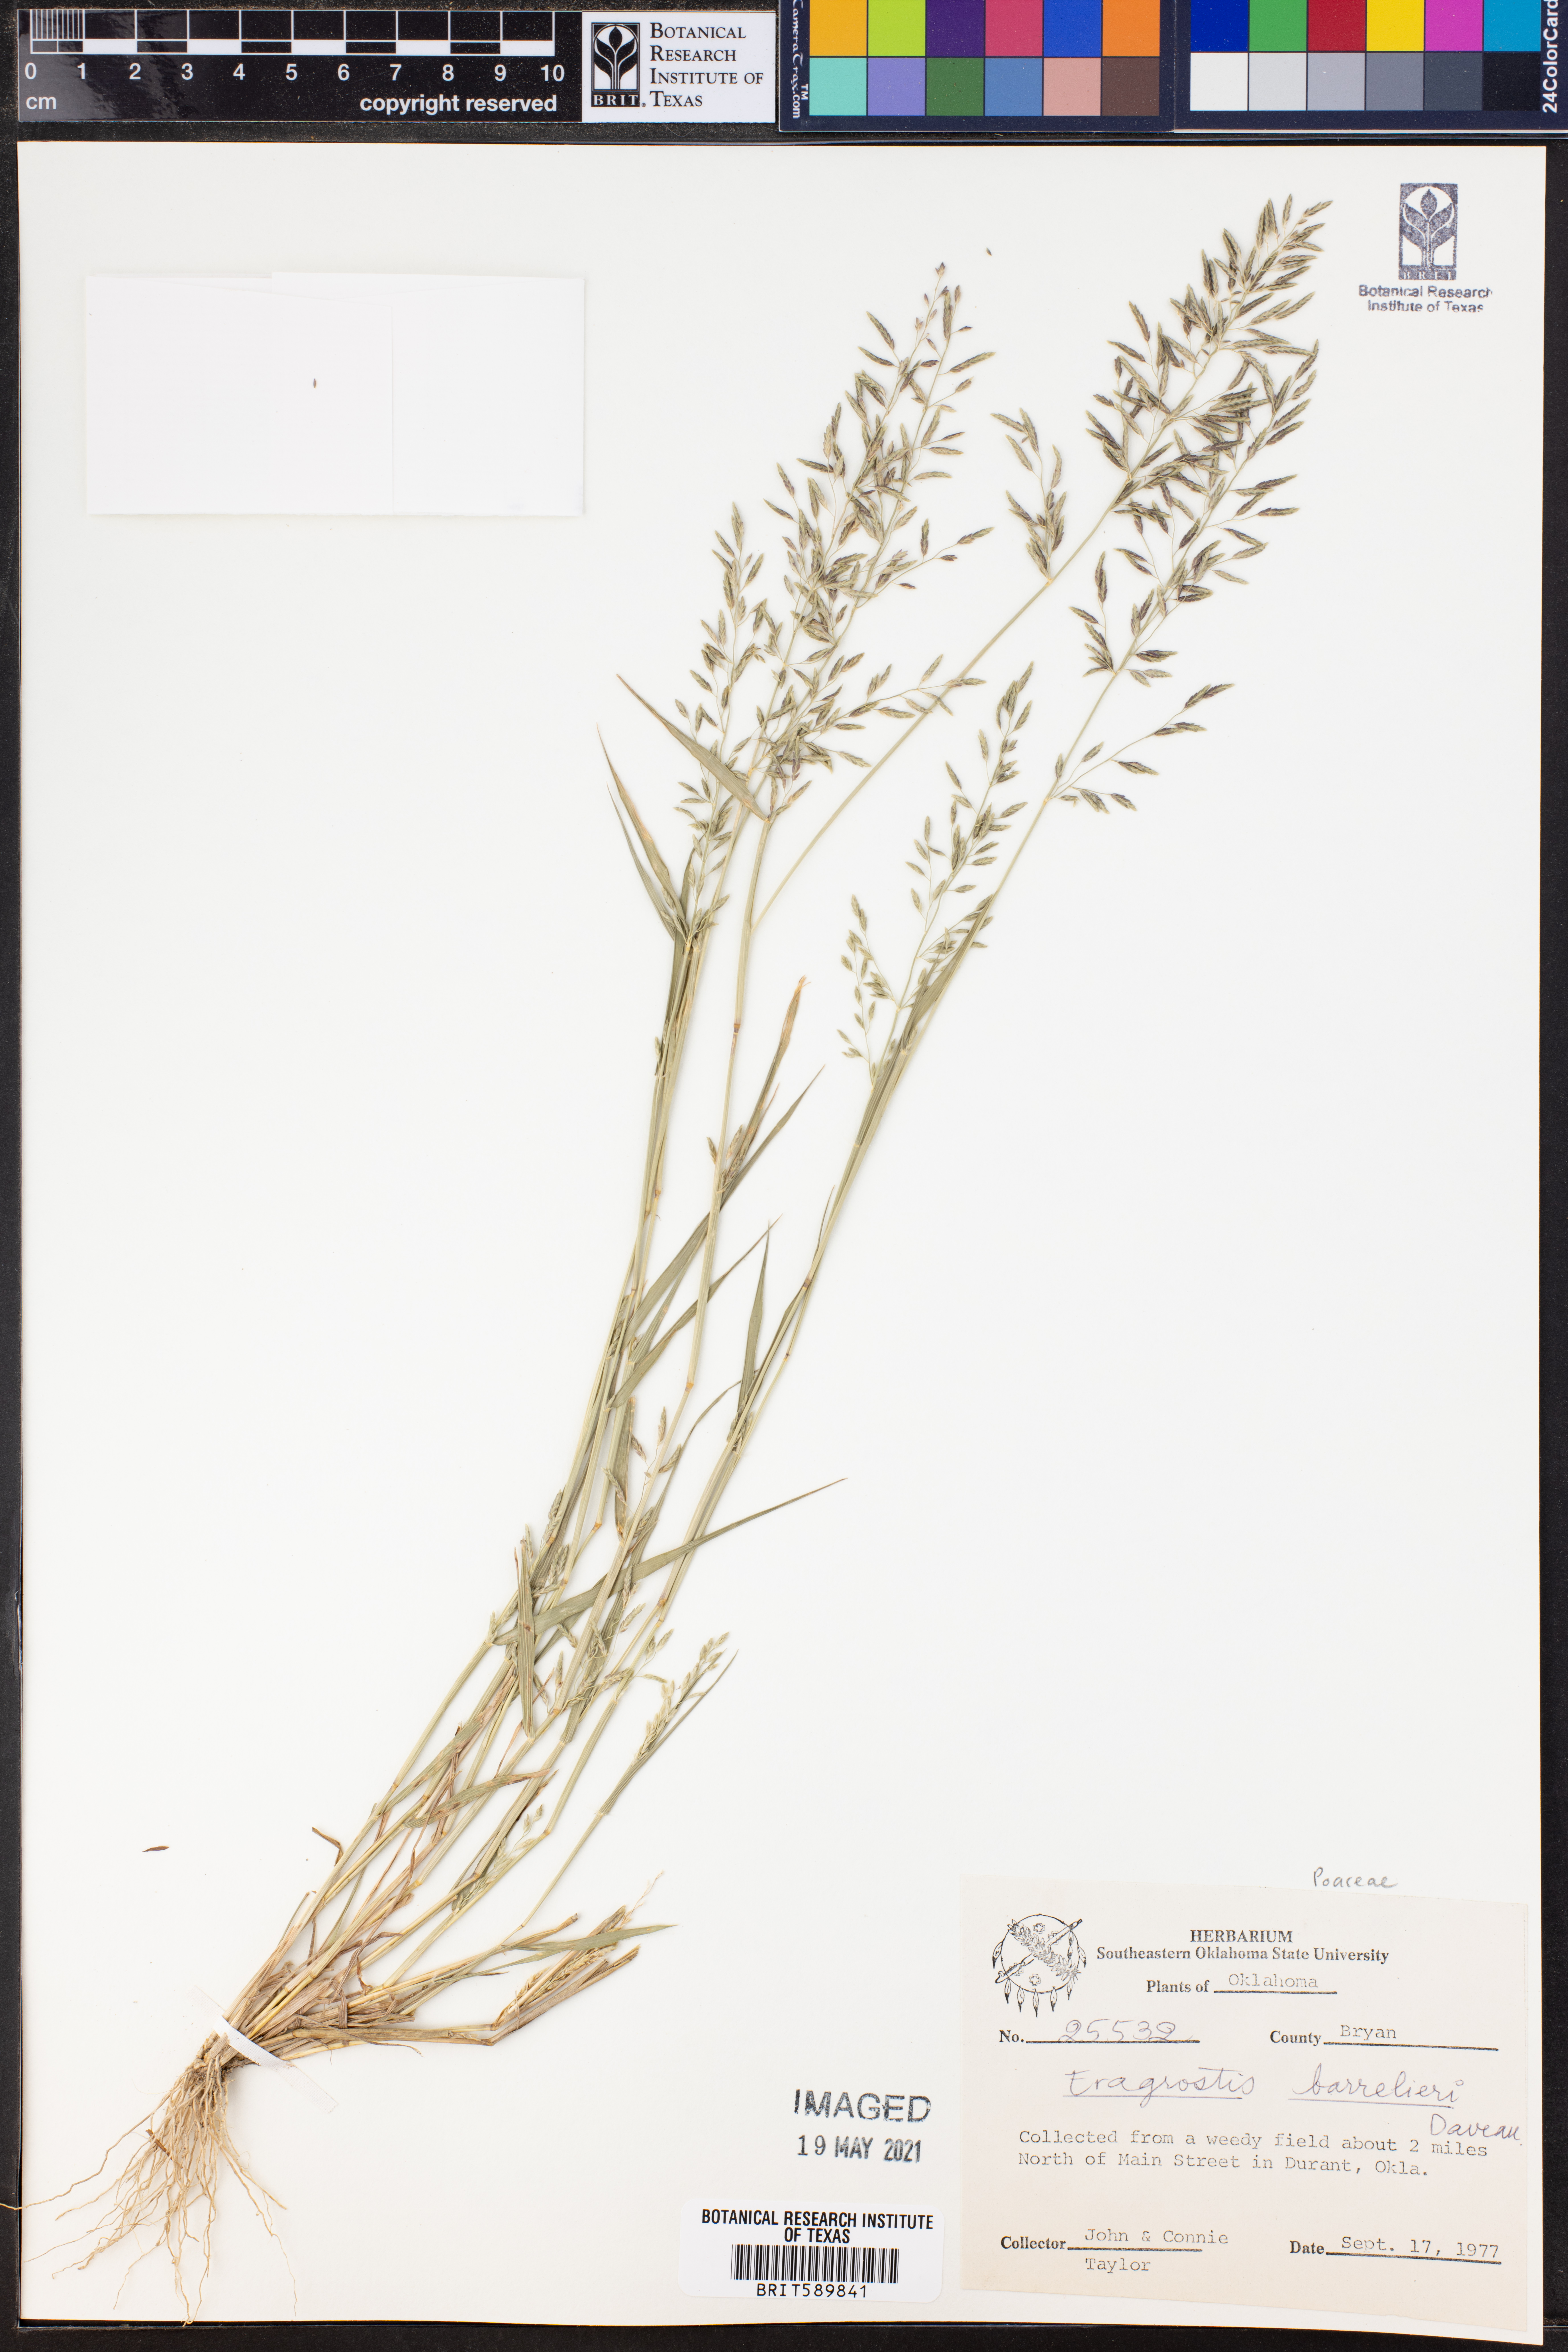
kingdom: Plantae
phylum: Tracheophyta
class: Liliopsida
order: Poales
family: Poaceae
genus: Eragrostis
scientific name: Eragrostis barrelieri
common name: Mediterranean lovegrass
